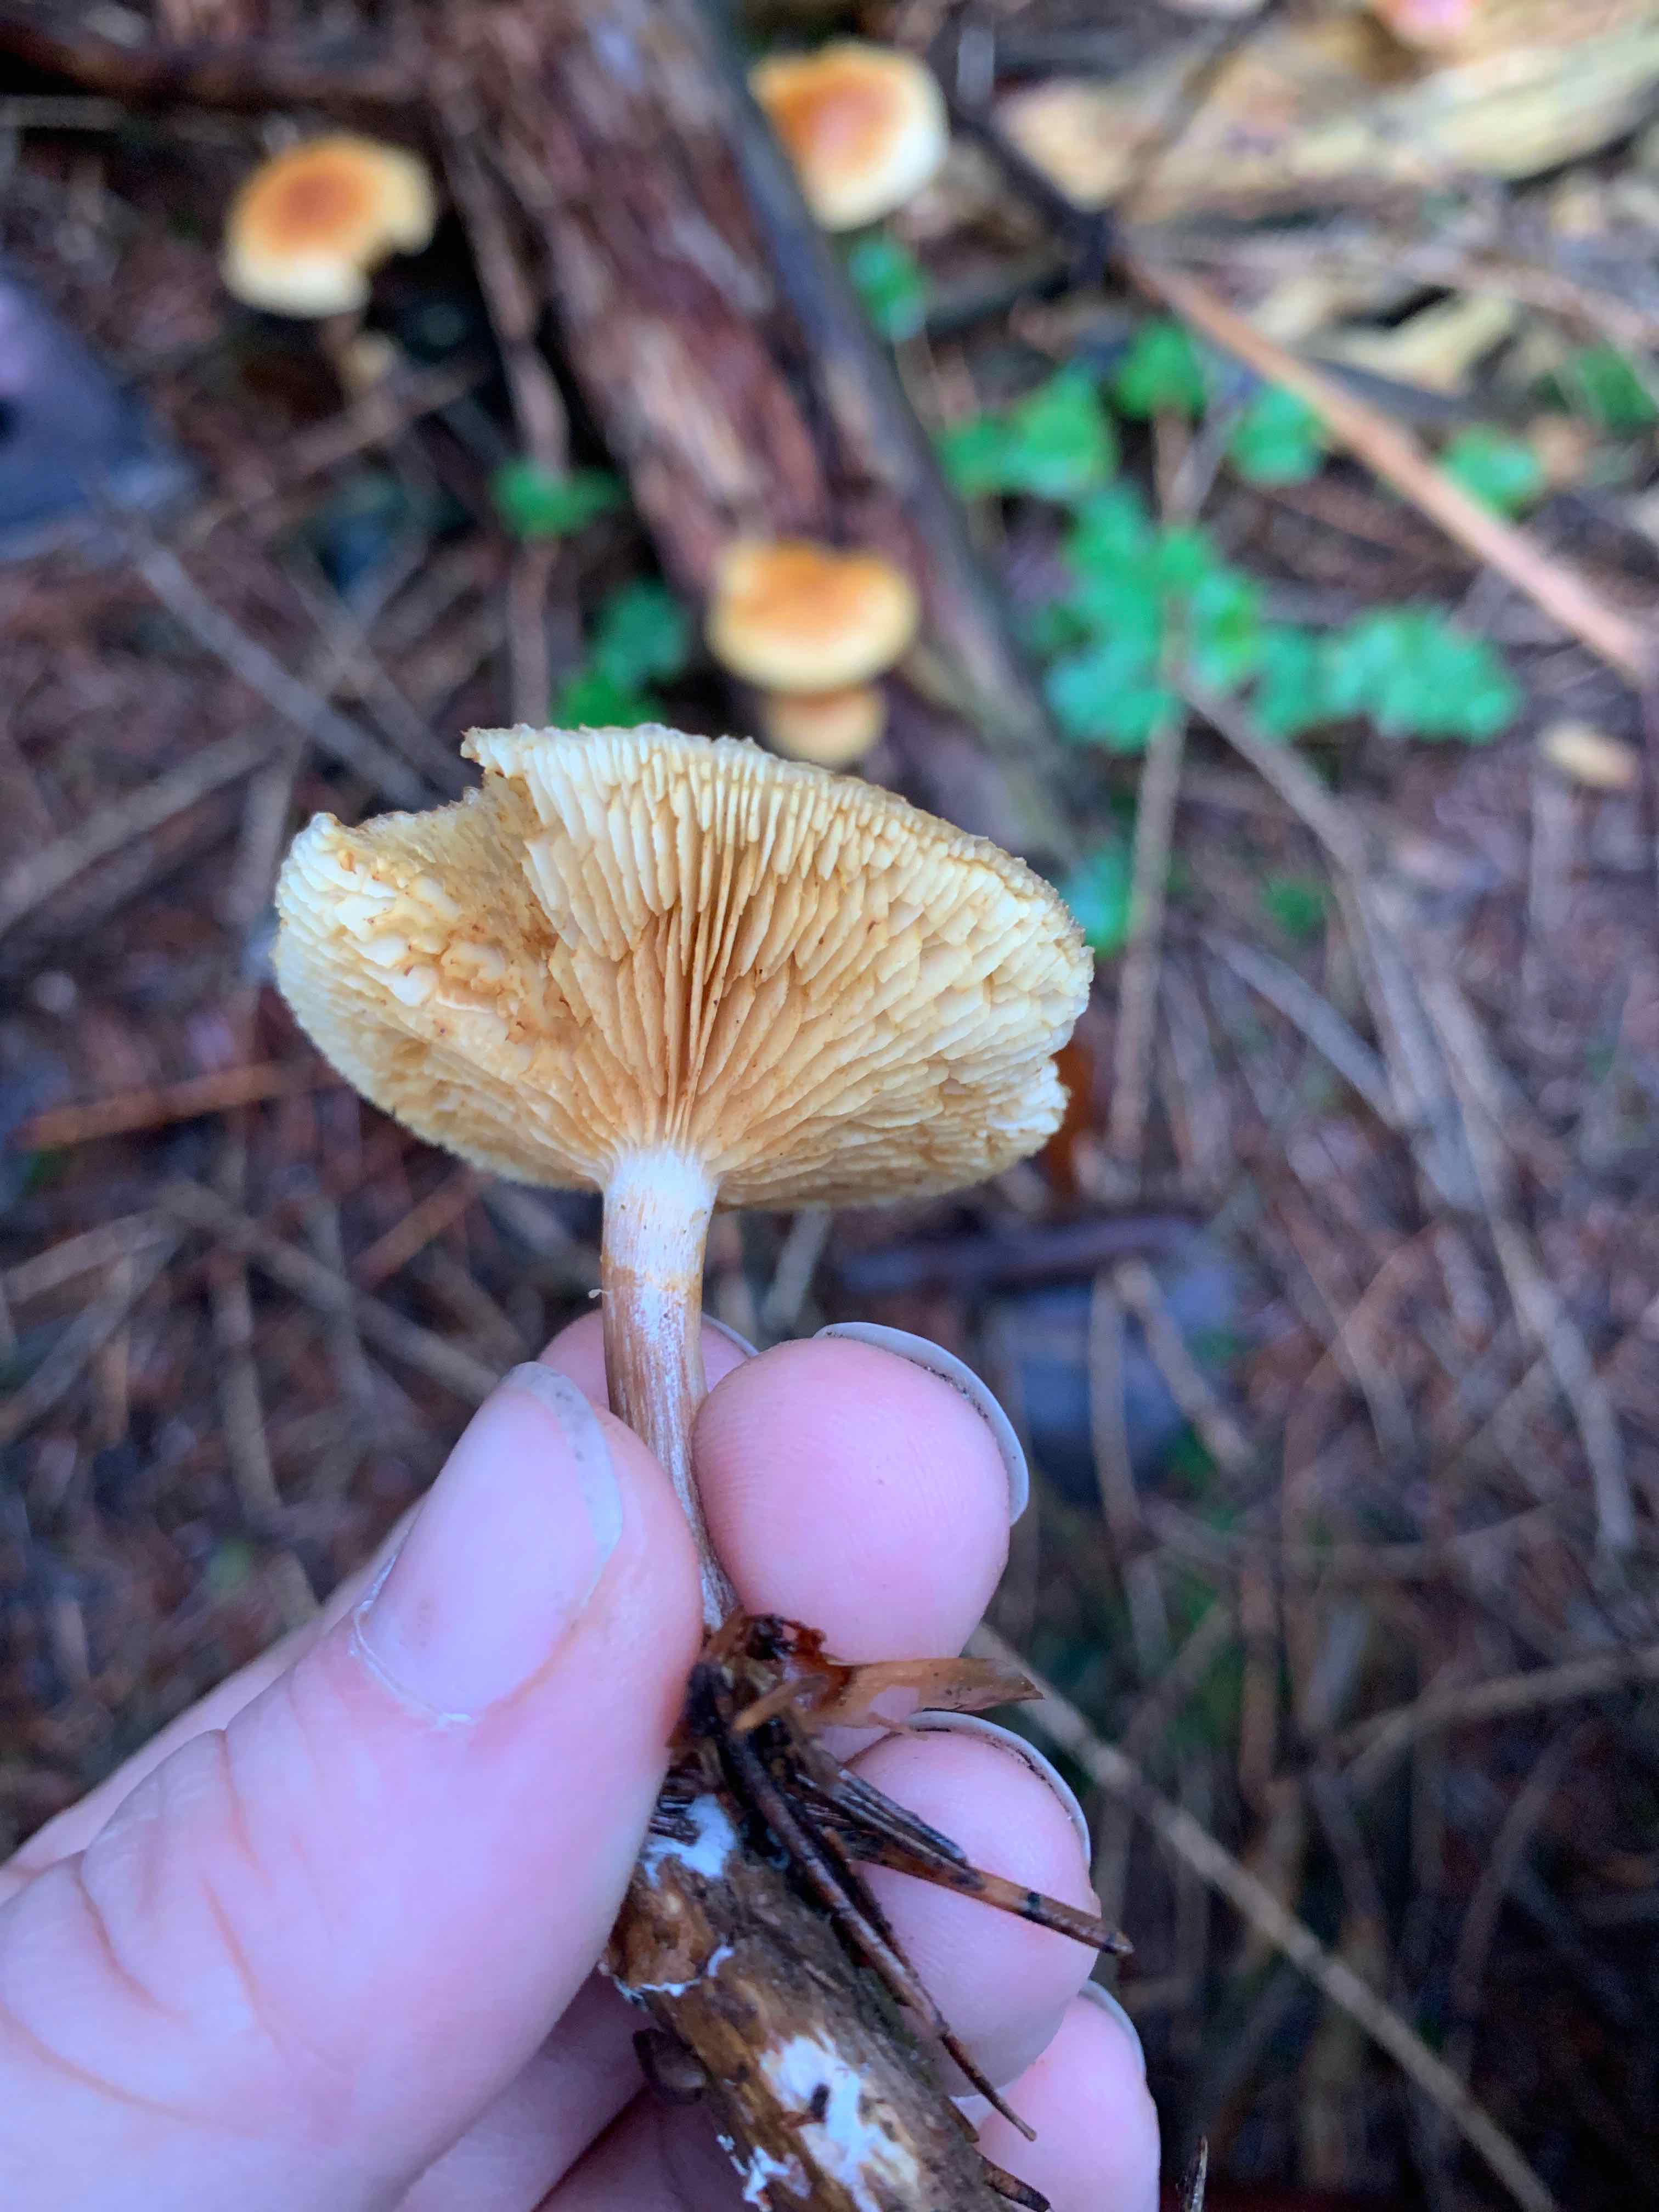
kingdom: Fungi
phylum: Basidiomycota
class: Agaricomycetes
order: Agaricales
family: Hymenogastraceae
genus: Gymnopilus
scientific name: Gymnopilus penetrans
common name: plettet flammehat
